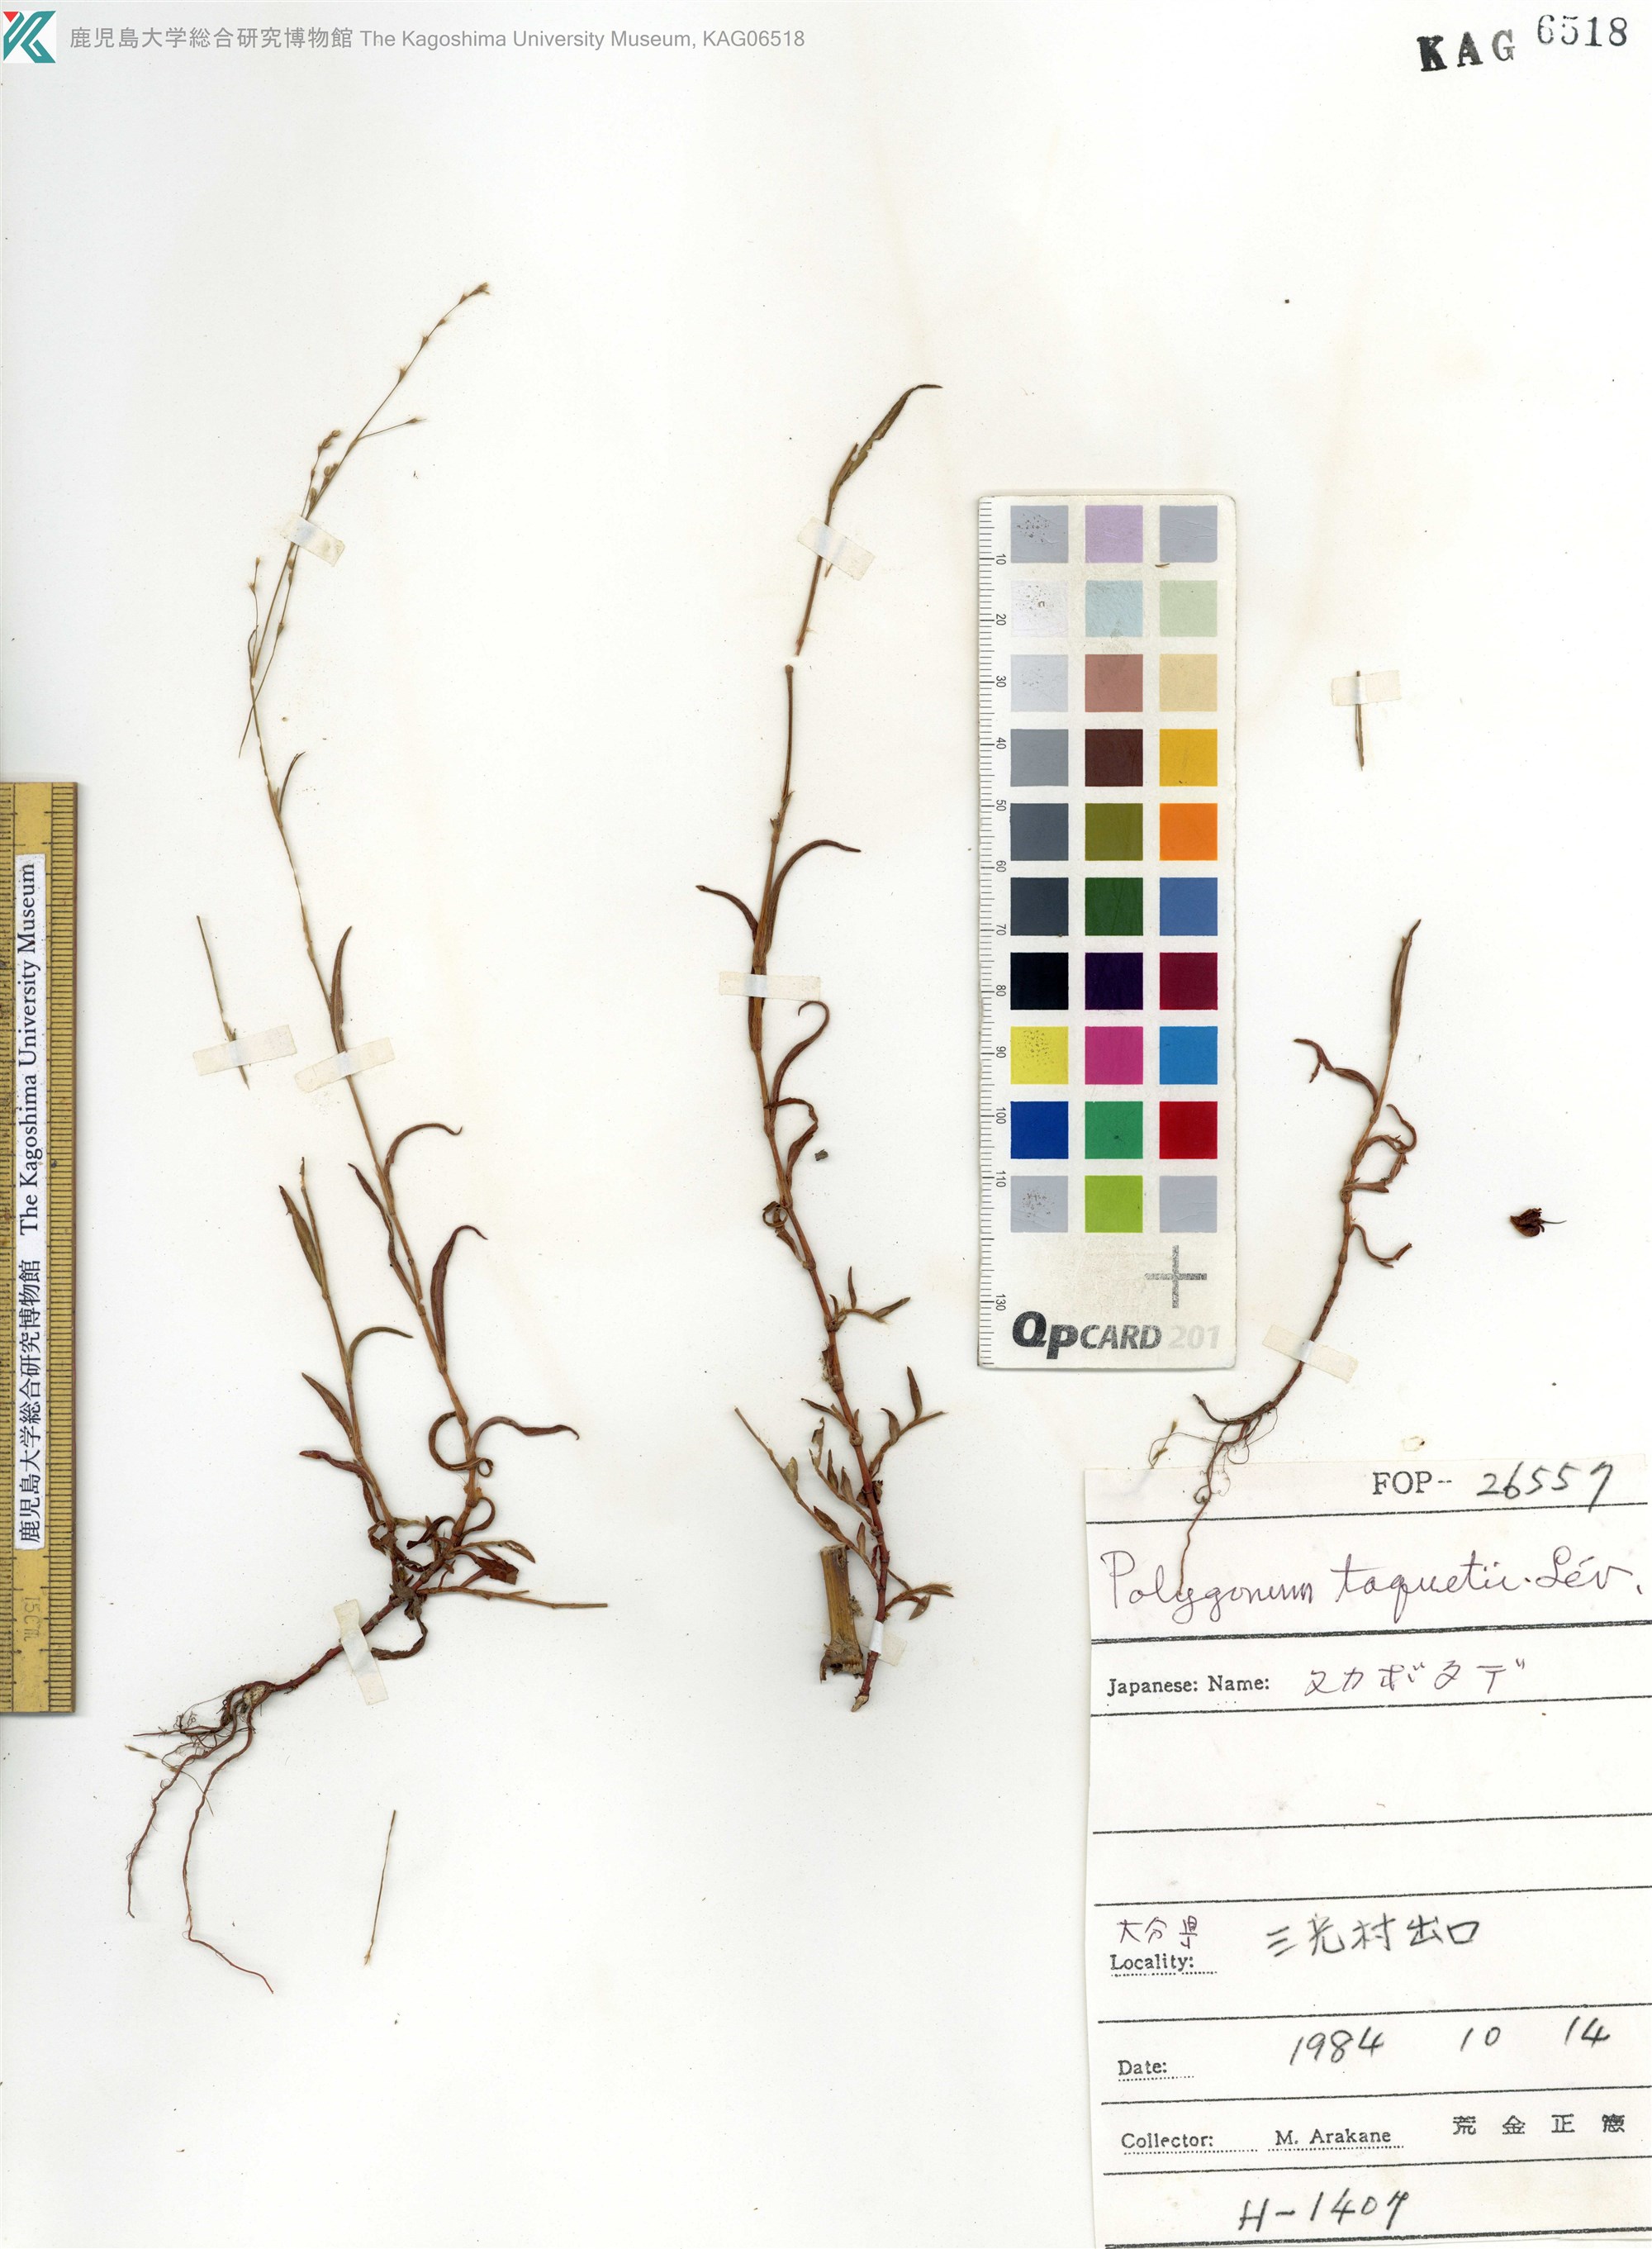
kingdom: Plantae
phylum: Tracheophyta
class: Magnoliopsida
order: Caryophyllales
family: Polygonaceae
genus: Persicaria
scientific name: Persicaria taquetii
